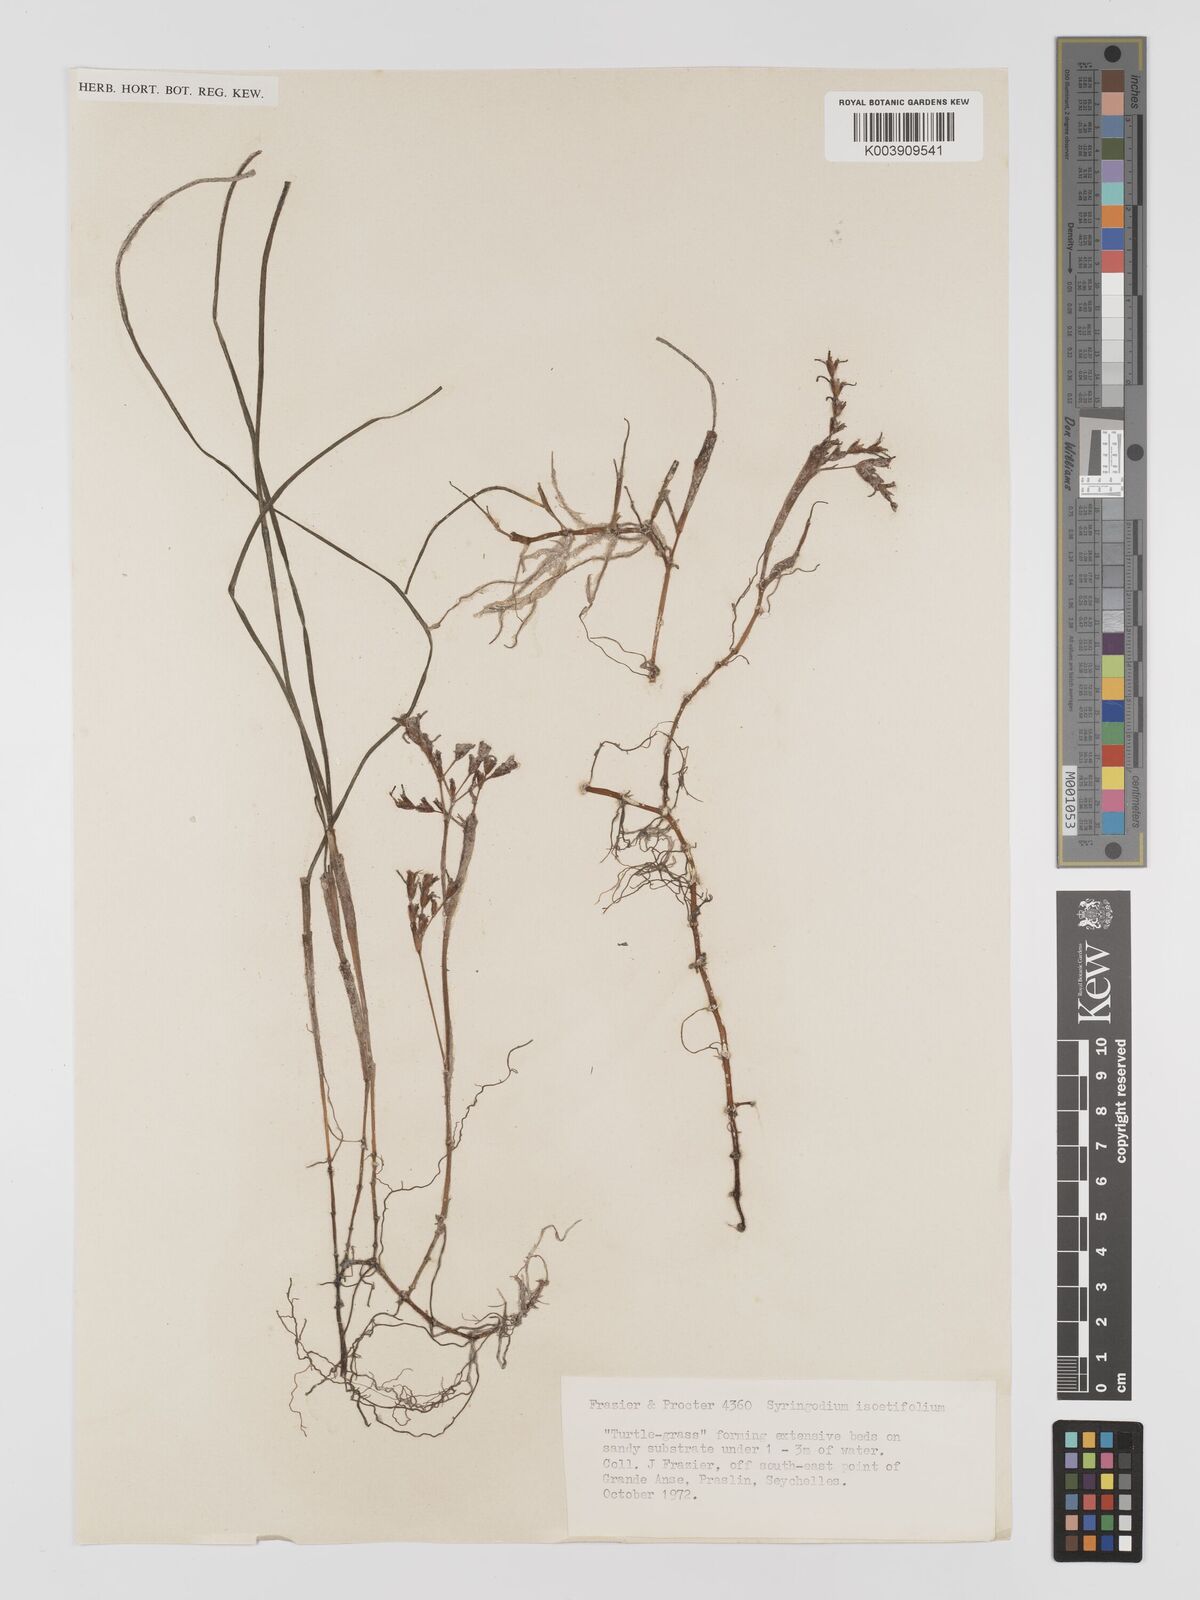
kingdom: Plantae
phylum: Tracheophyta
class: Liliopsida
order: Alismatales
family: Cymodoceaceae
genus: Syringodium
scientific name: Syringodium isoetifolium
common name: Species code: si
